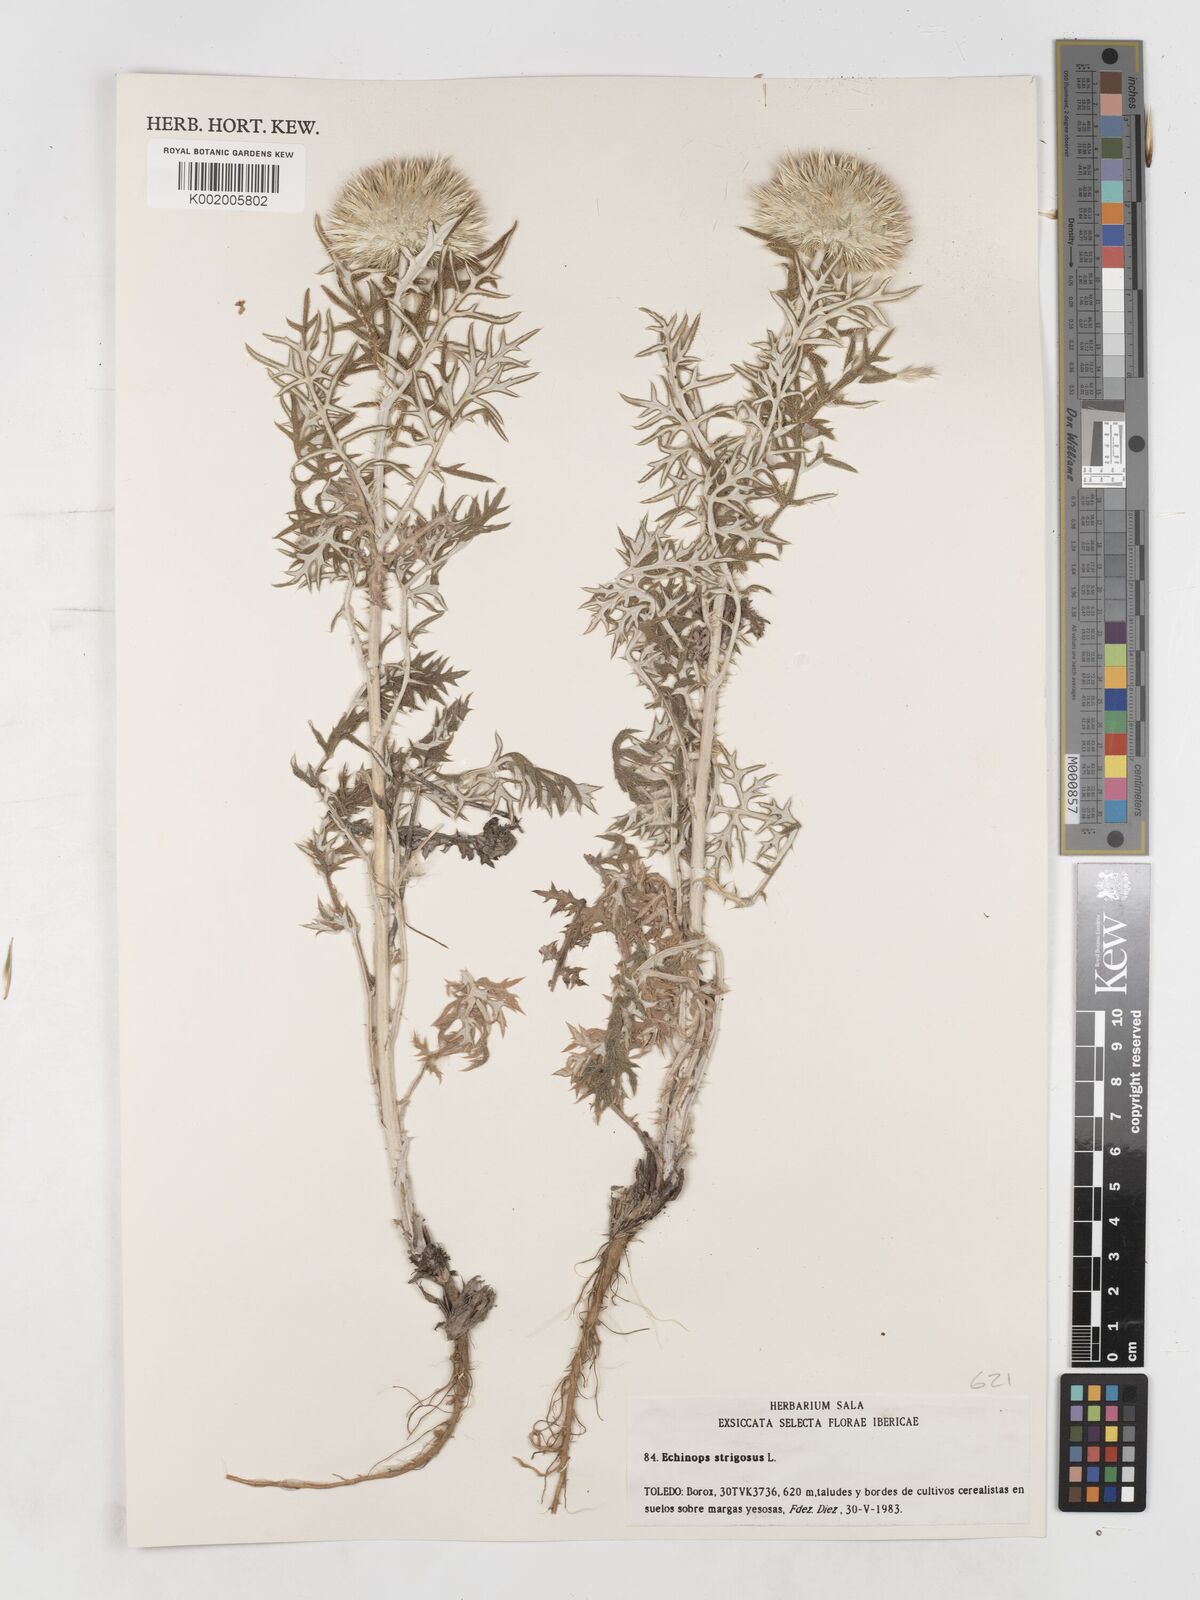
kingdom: Plantae
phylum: Tracheophyta
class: Magnoliopsida
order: Asterales
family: Asteraceae
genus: Echinops
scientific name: Echinops strigosus
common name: Rough-leaf globe thistle
